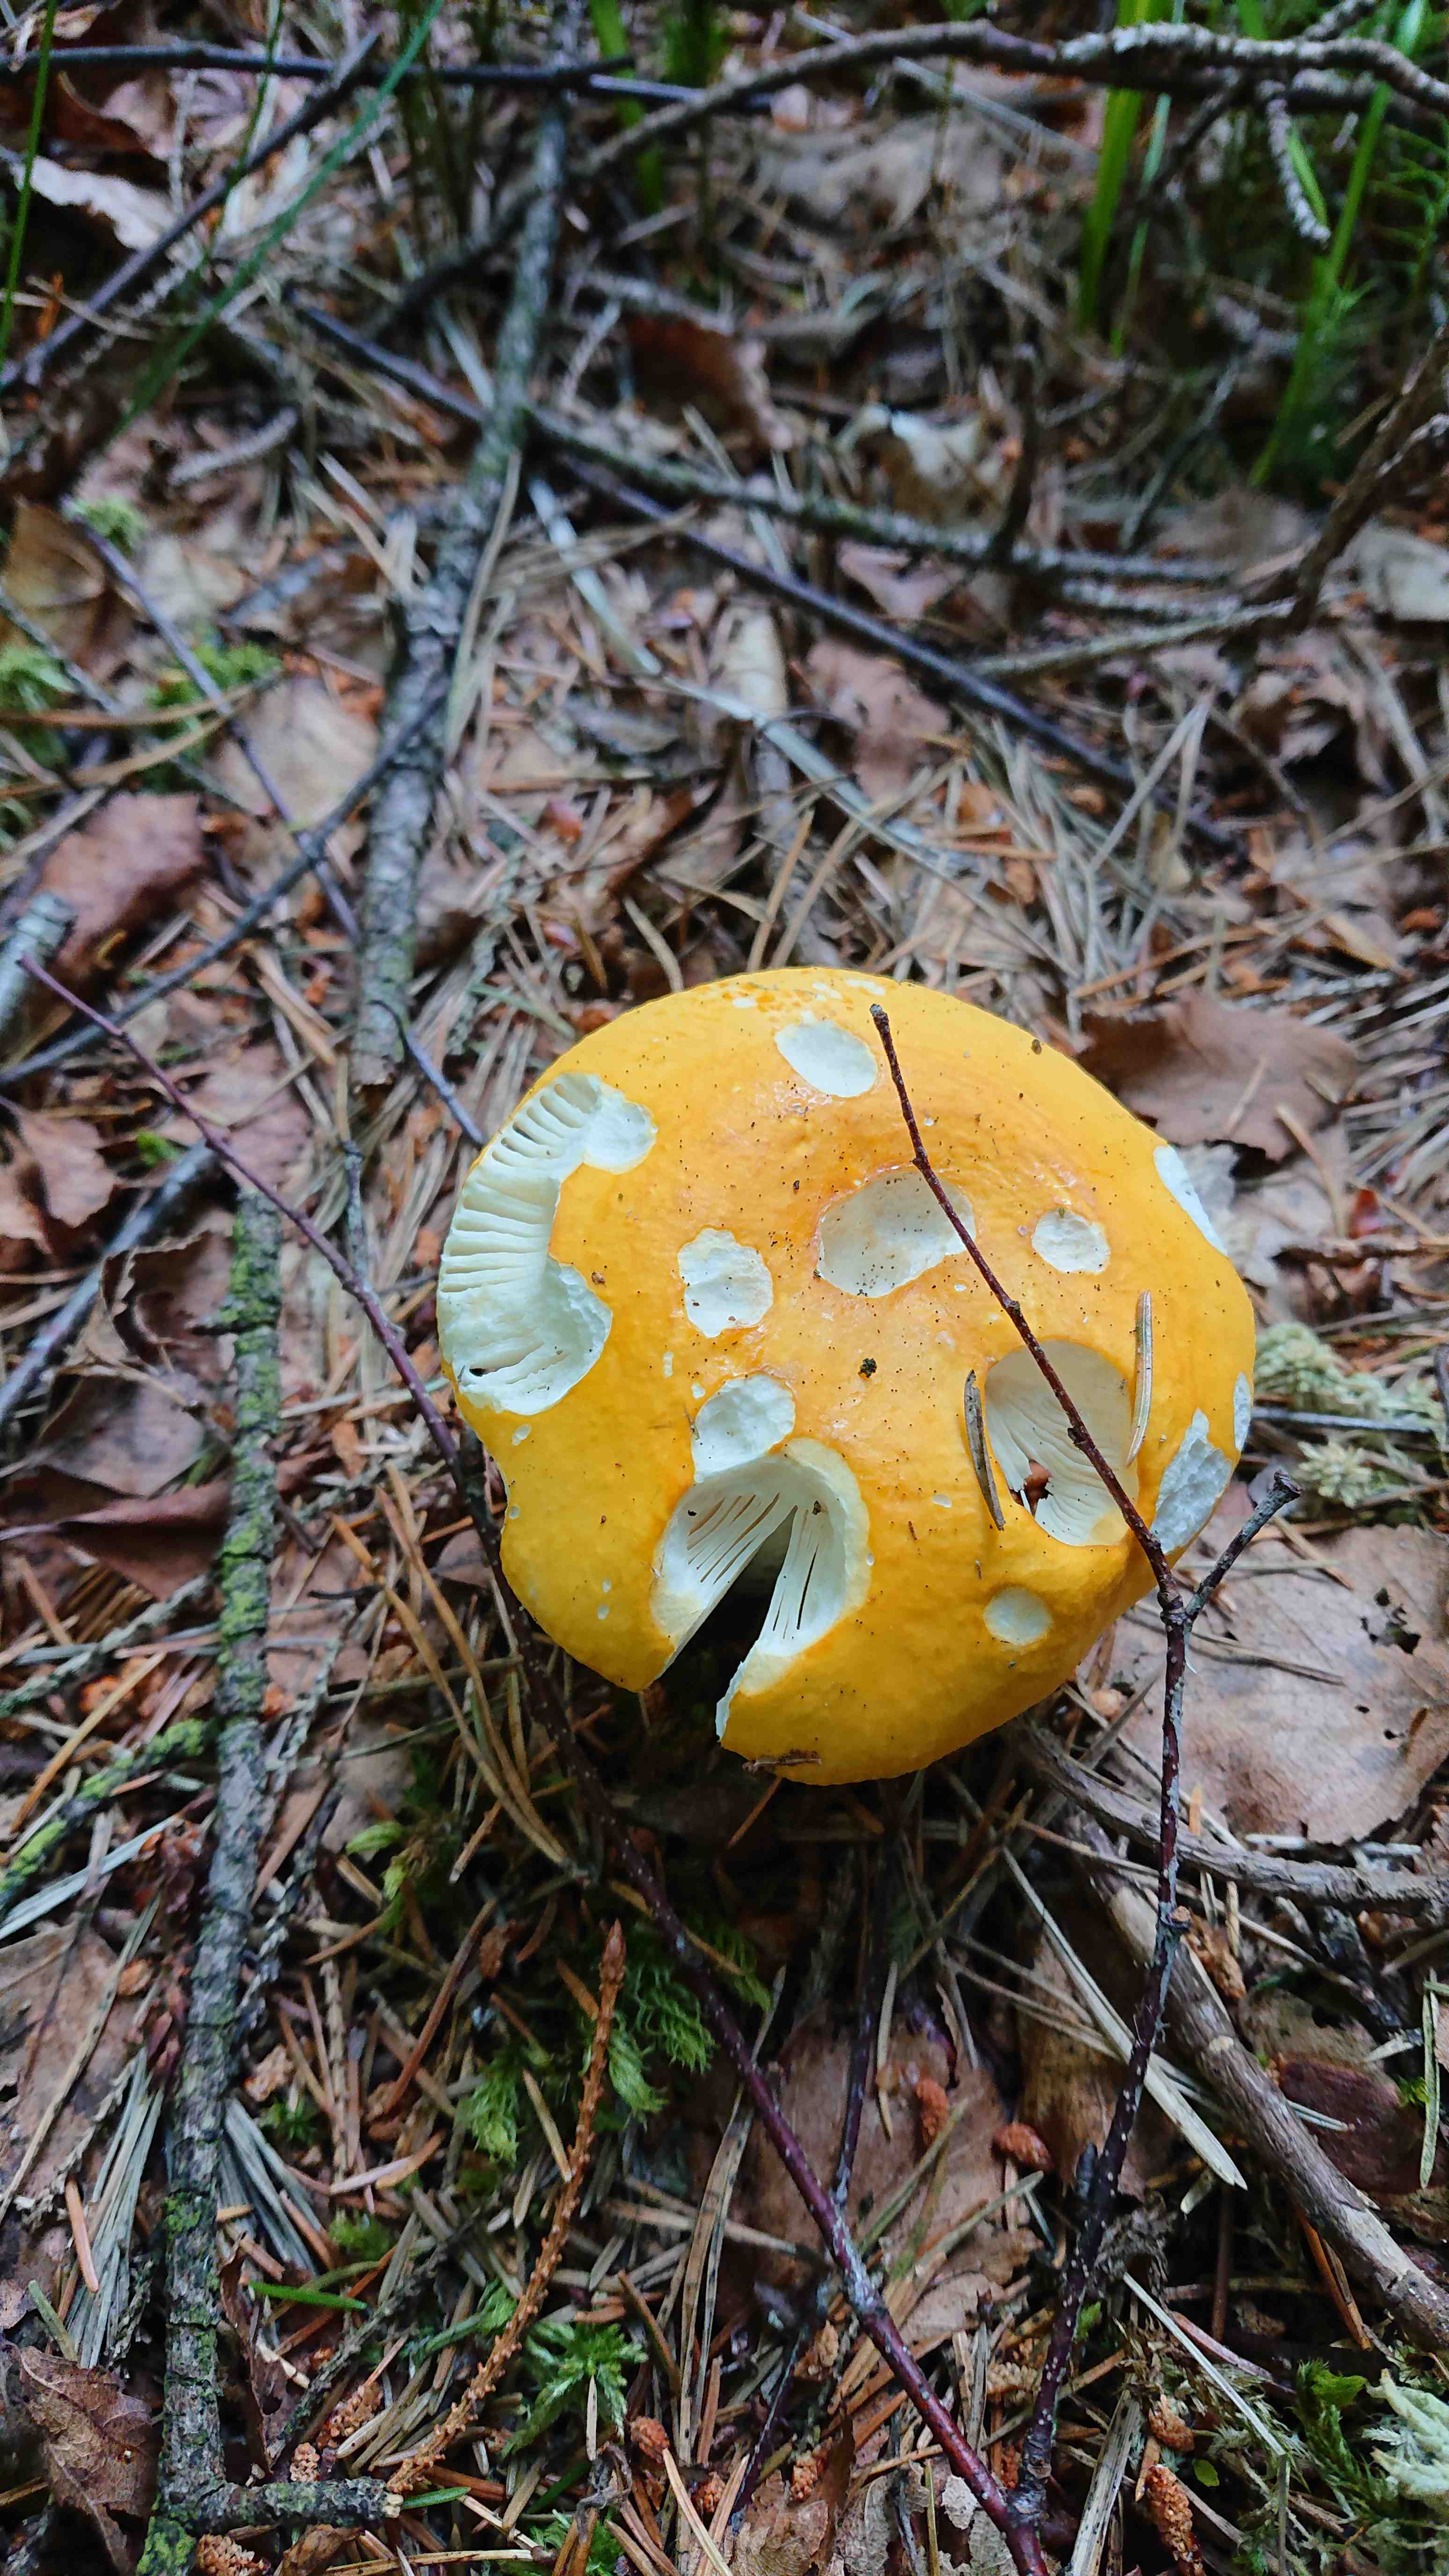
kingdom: Fungi
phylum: Basidiomycota
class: Agaricomycetes
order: Russulales
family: Russulaceae
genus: Russula
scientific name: Russula claroflava
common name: birke-skørhat
